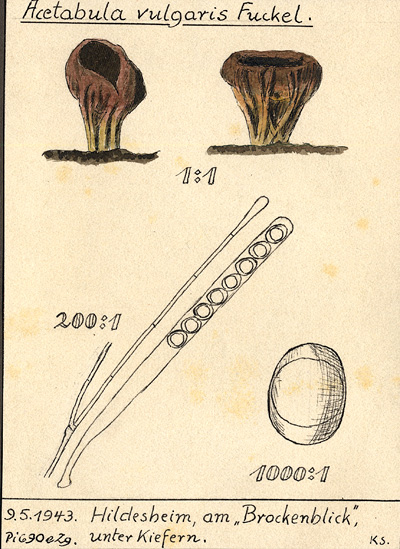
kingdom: Fungi
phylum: Ascomycota
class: Pezizomycetes
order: Pezizales
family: Helvellaceae
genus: Helvella
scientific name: Helvella acetabulum
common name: Vinegar cup
